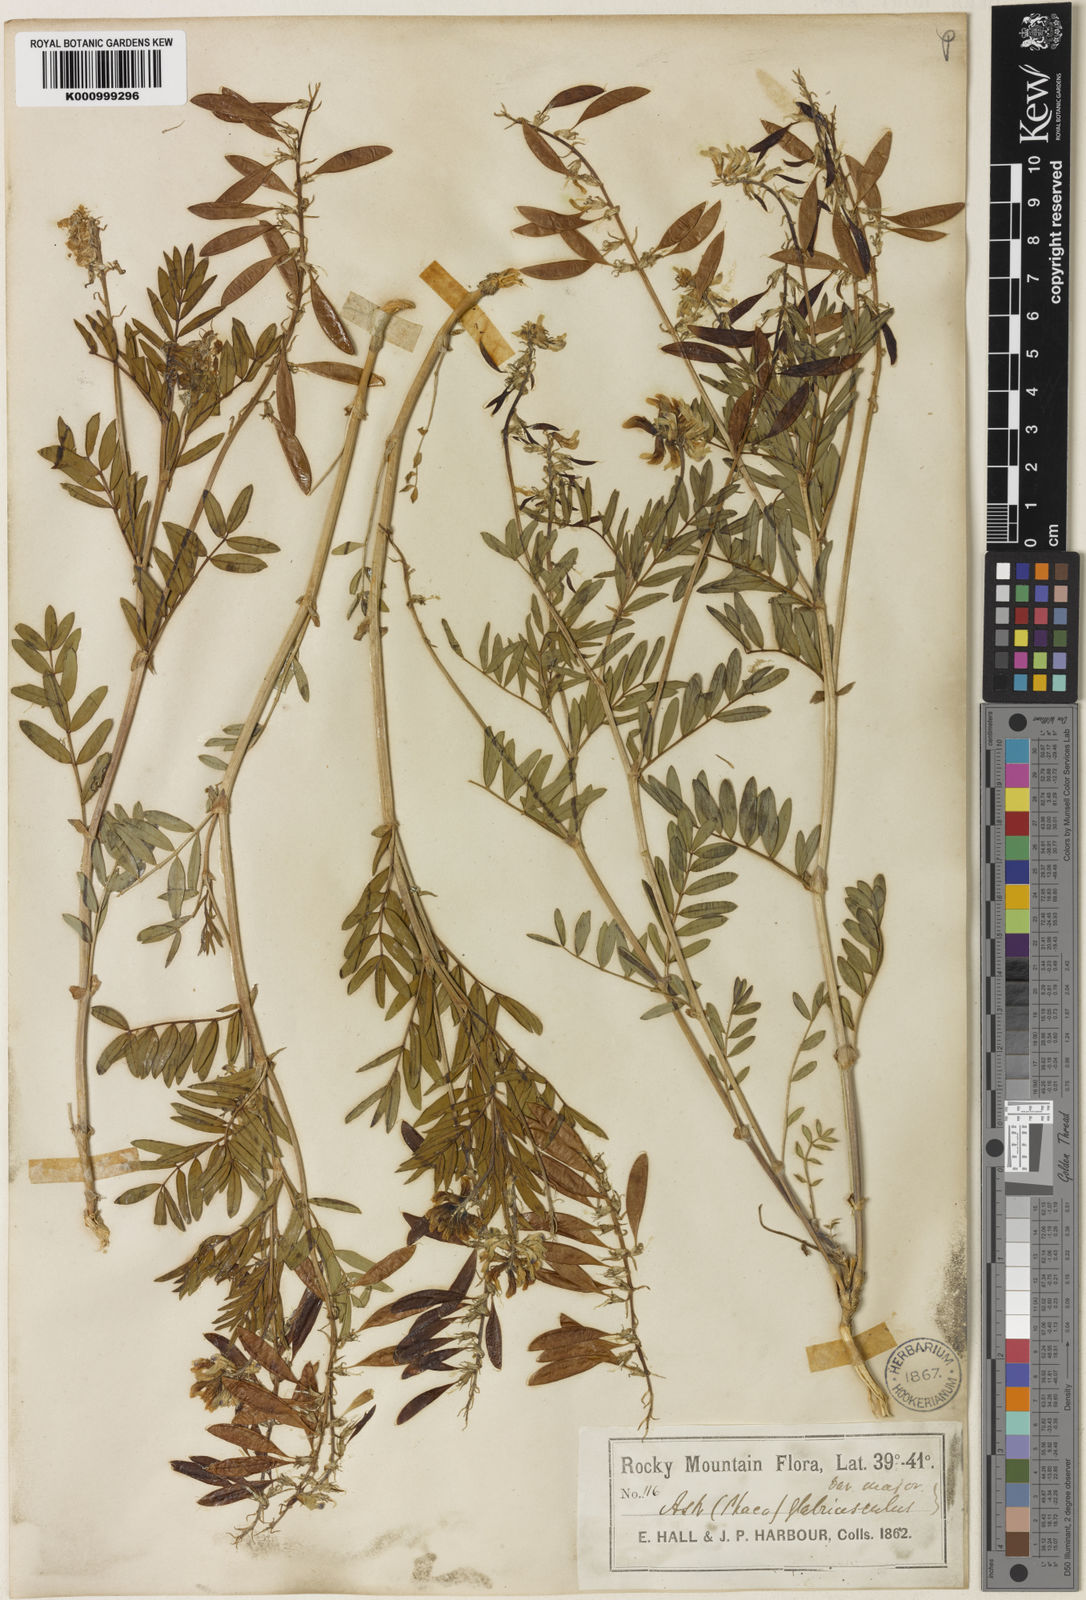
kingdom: Plantae
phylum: Tracheophyta
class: Magnoliopsida
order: Fabales
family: Fabaceae
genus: Astragalus
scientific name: Astragalus aboriginorum
